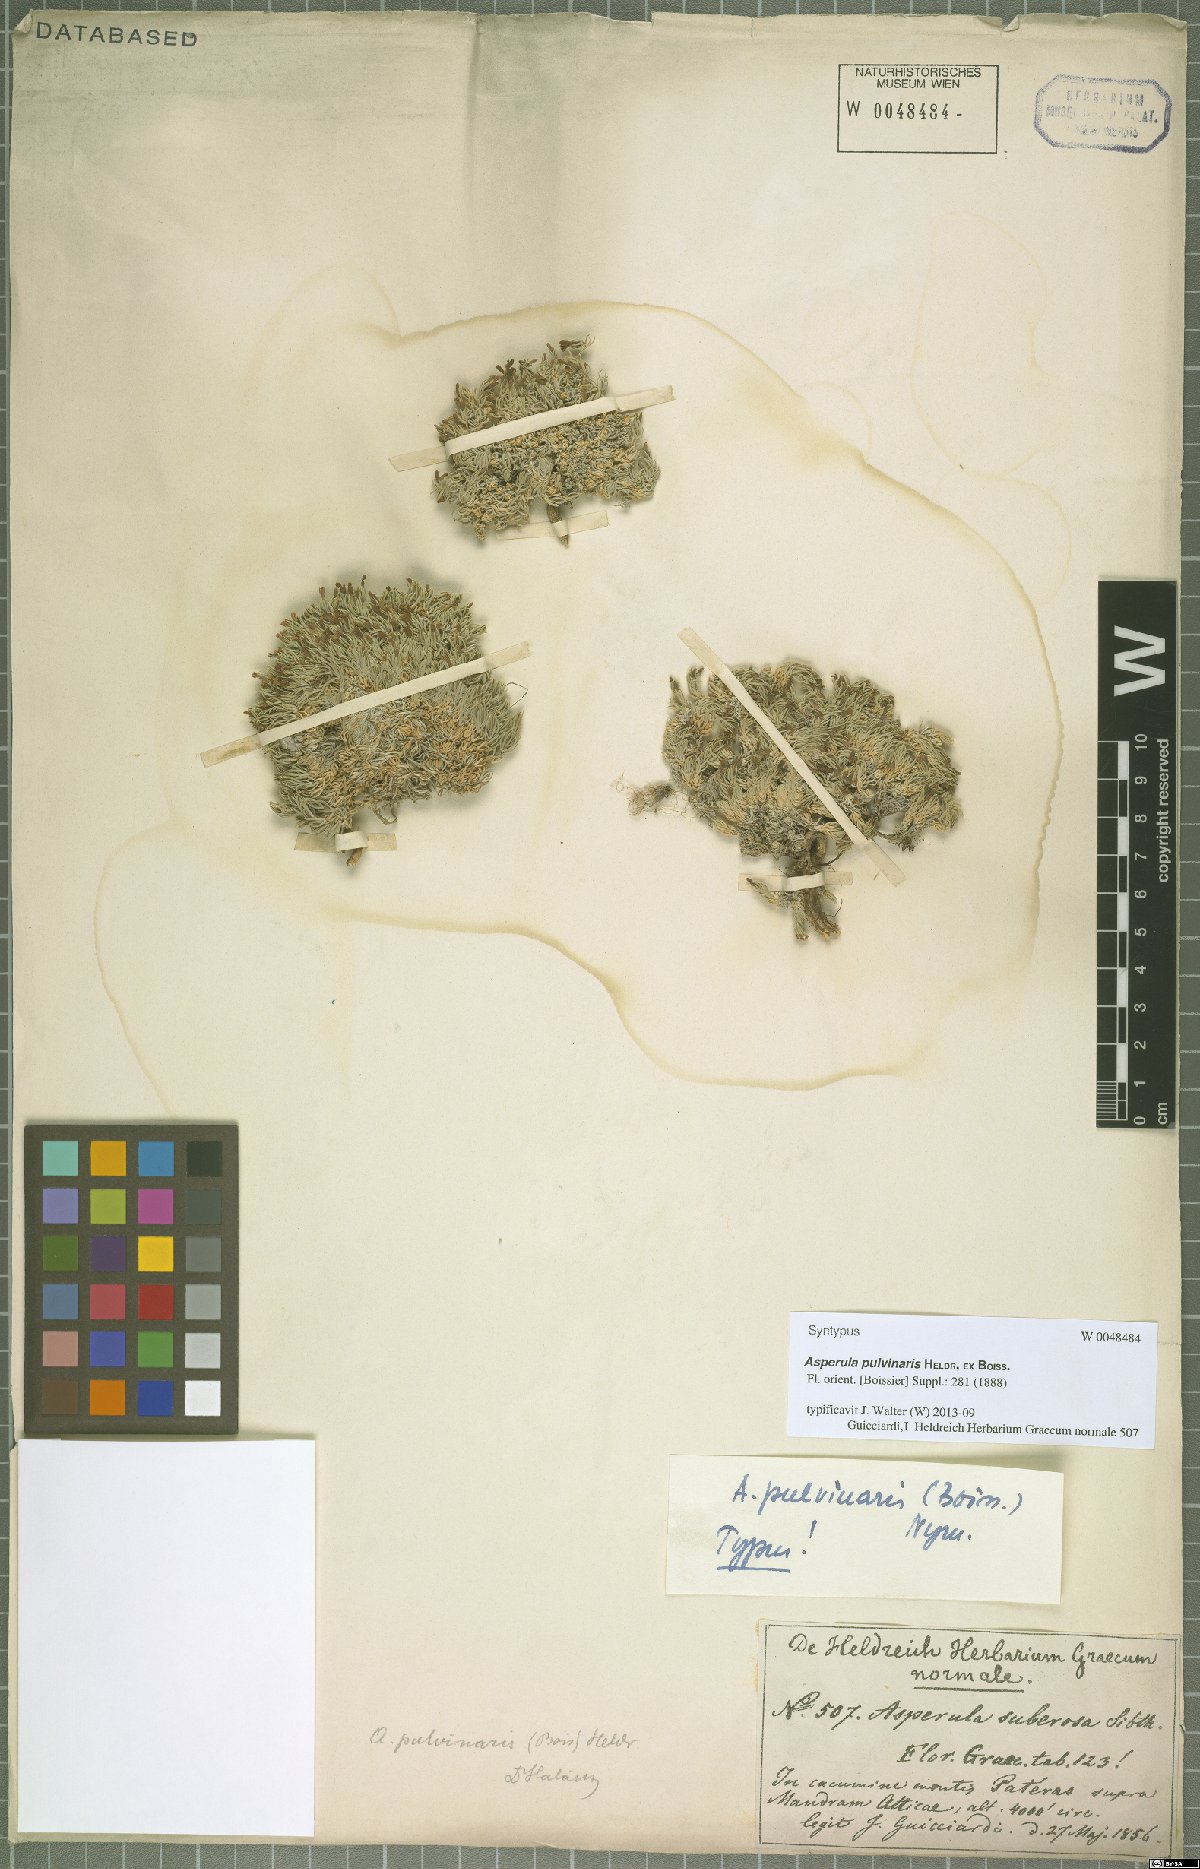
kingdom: Plantae
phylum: Tracheophyta
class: Magnoliopsida
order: Gentianales
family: Rubiaceae
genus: Cynanchica
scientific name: Cynanchica pulvinaris
